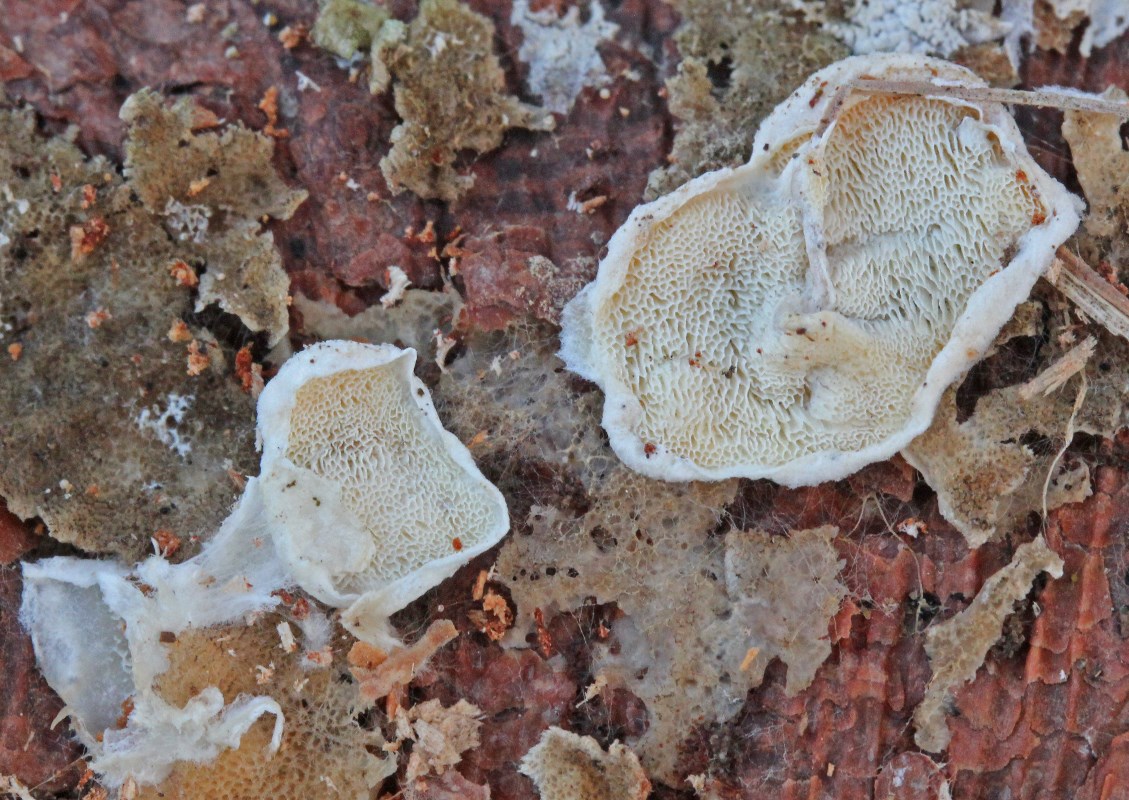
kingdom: Fungi
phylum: Basidiomycota
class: Agaricomycetes
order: Polyporales
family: Incrustoporiaceae
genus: Skeletocutis
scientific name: Skeletocutis carneogrisea
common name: rødgrå krystalporesvamp
